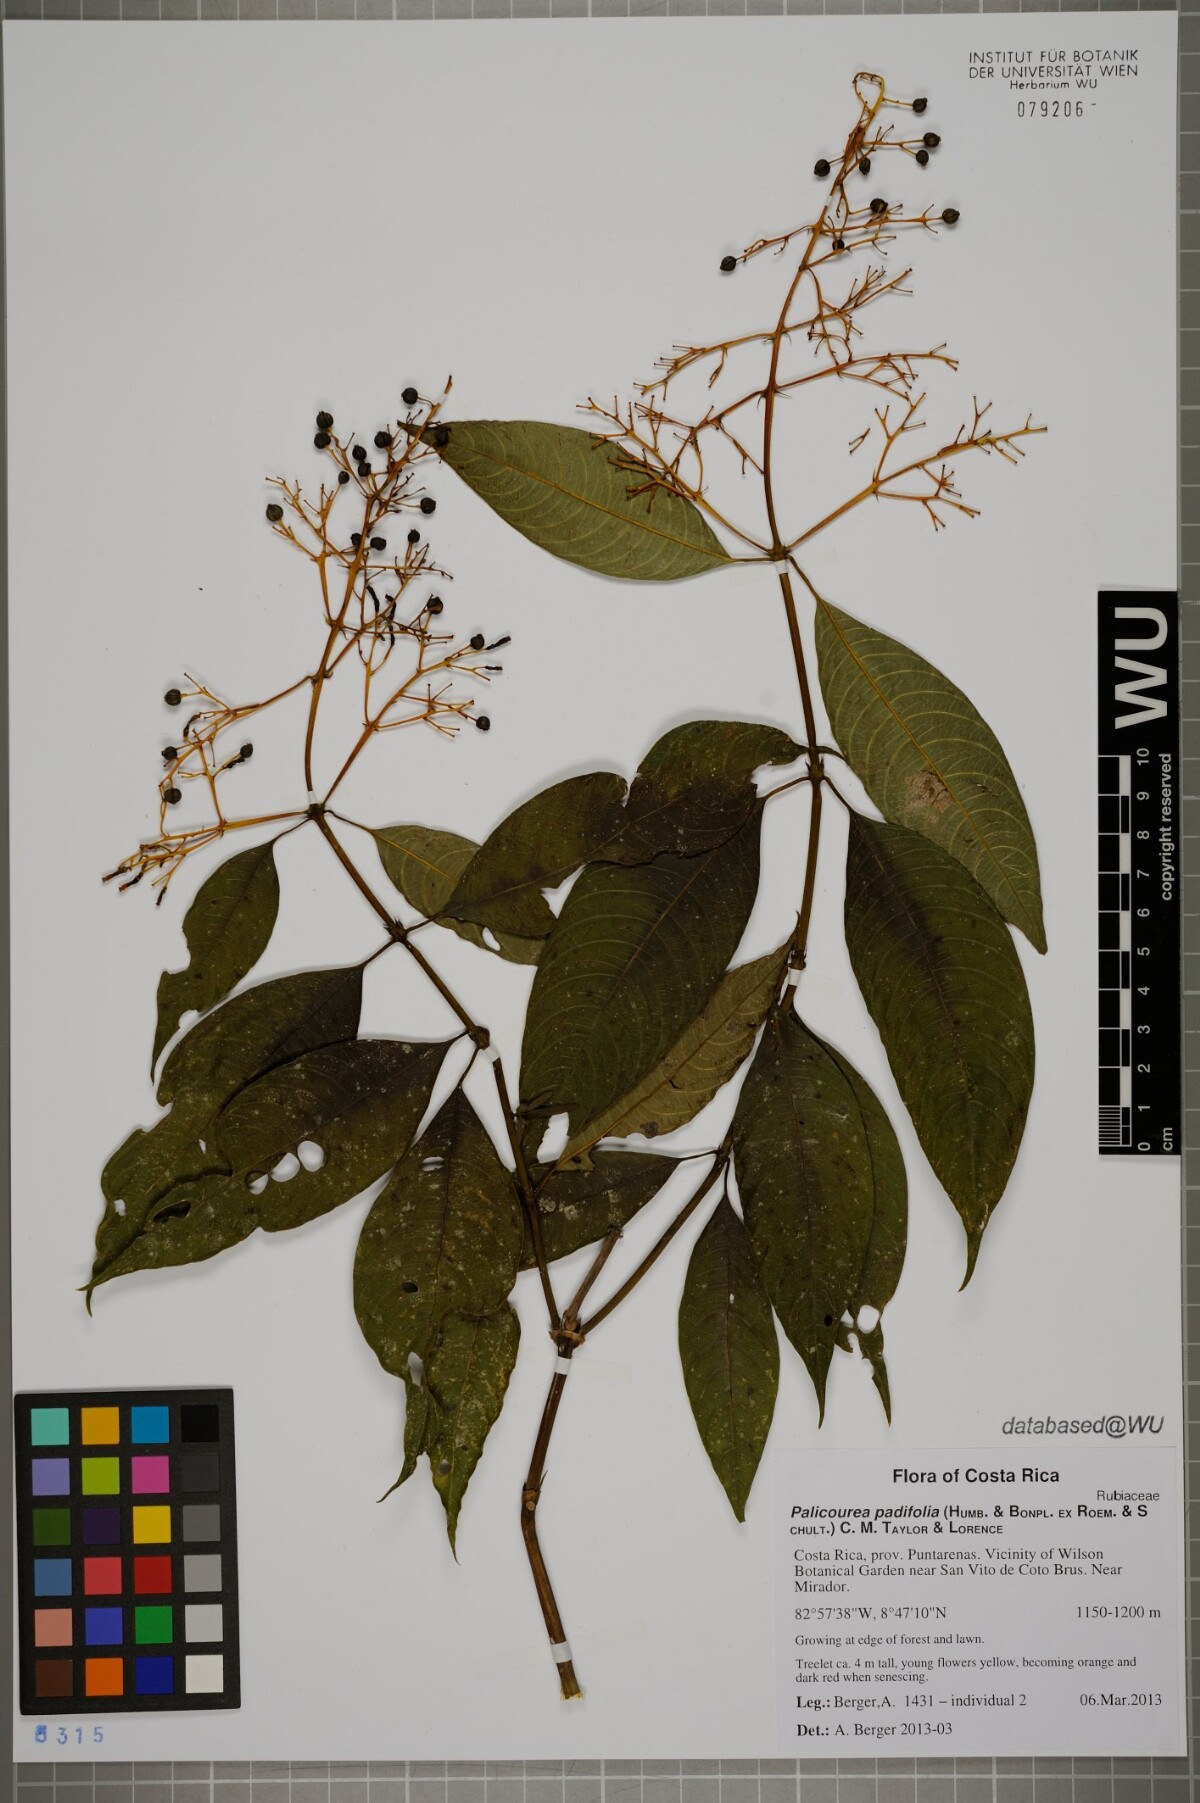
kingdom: Plantae
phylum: Tracheophyta
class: Magnoliopsida
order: Gentianales
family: Rubiaceae
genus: Palicourea
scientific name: Palicourea padifolia
